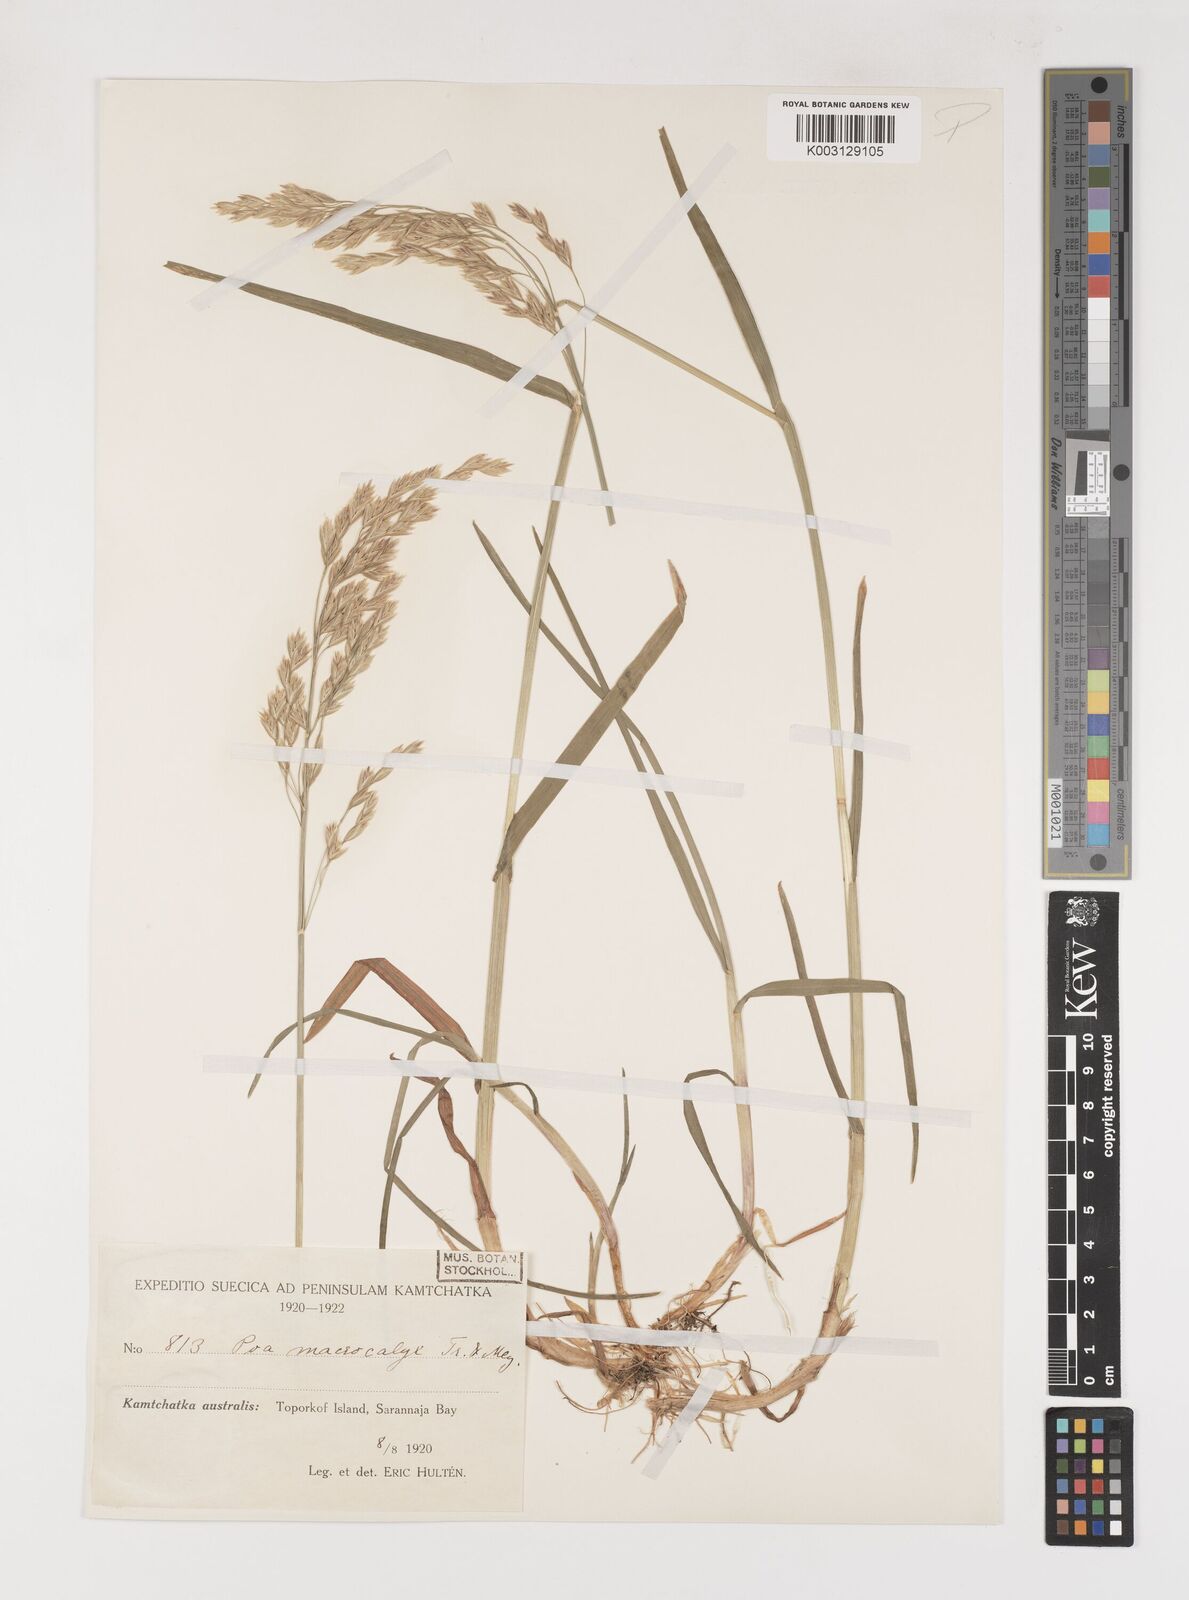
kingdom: Plantae
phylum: Tracheophyta
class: Liliopsida
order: Poales
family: Poaceae
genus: Poa
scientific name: Poa macrocalyx
